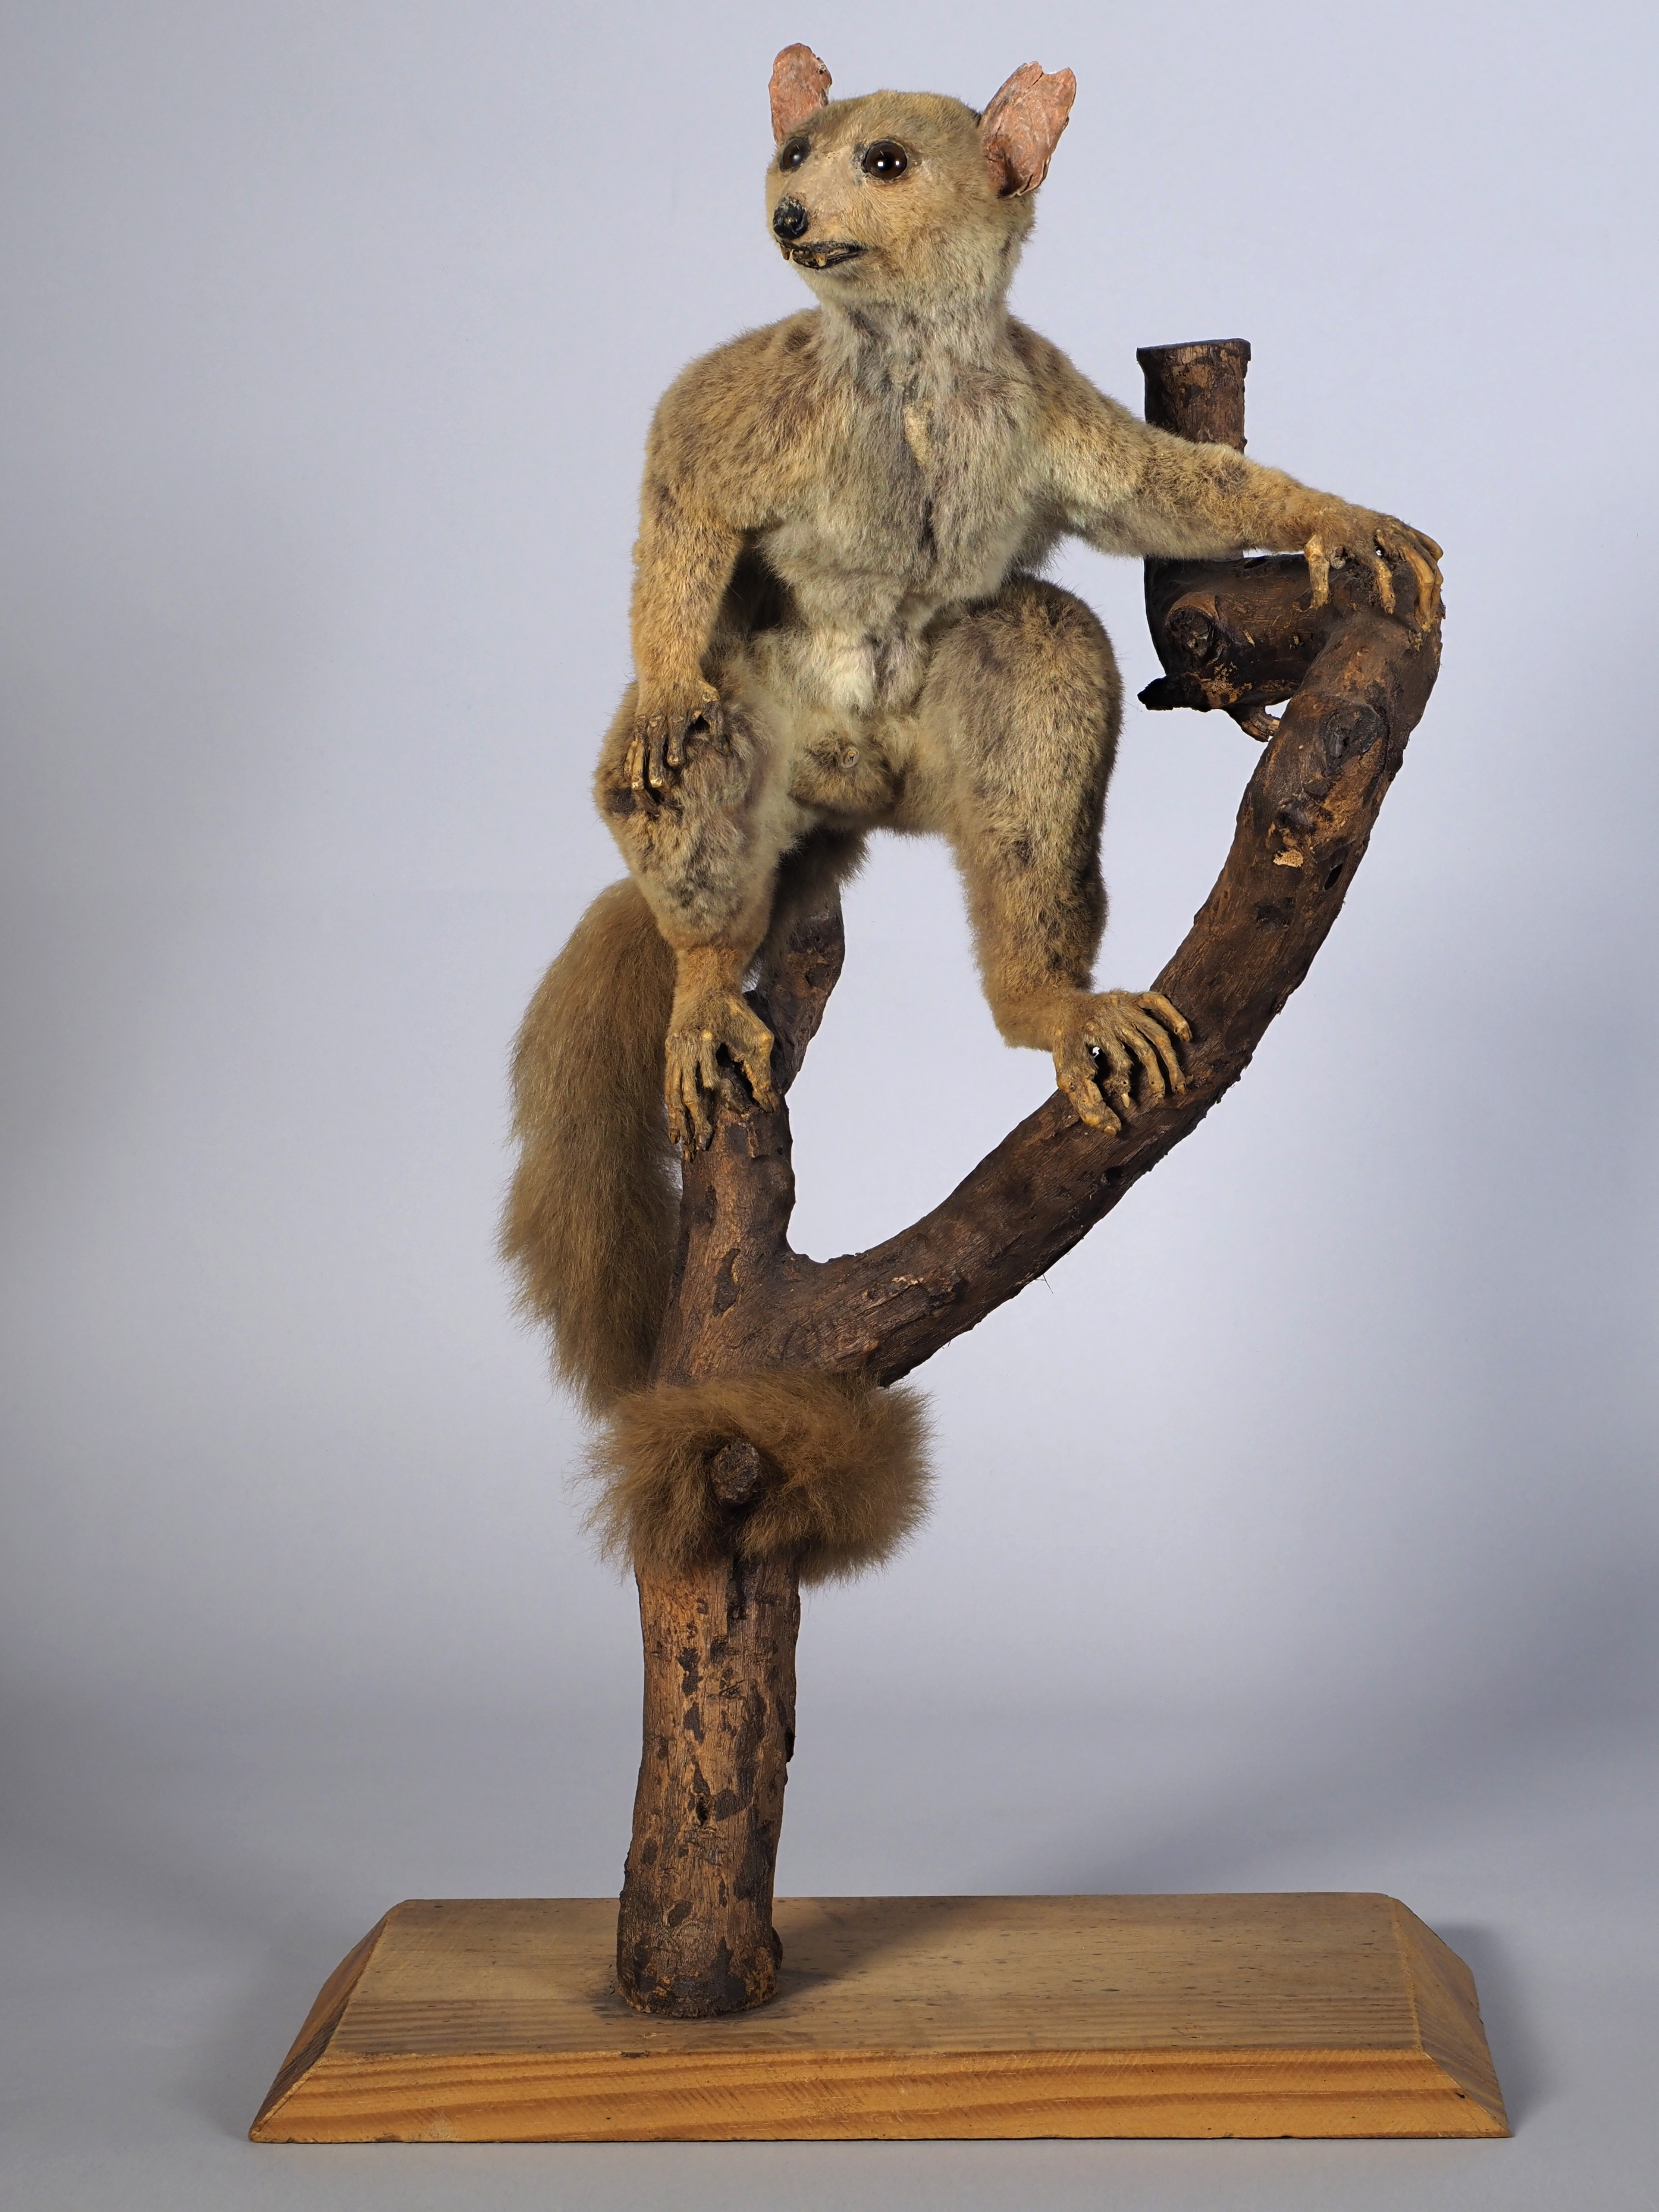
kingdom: Animalia
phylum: Chordata
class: Mammalia
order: Primates
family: Galagidae
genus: Otolemur
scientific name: Otolemur crassicaudatus
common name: Brown greater galago
